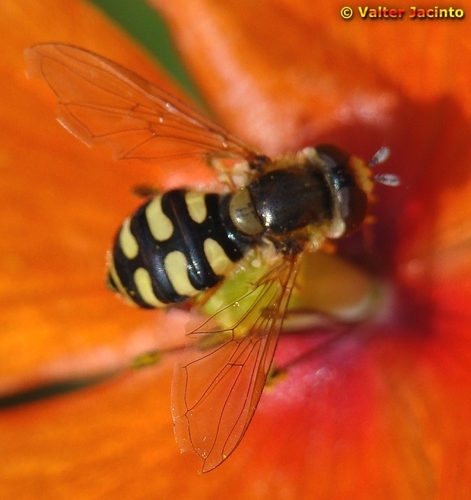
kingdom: Animalia
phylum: Arthropoda
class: Insecta
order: Diptera
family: Syrphidae
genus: Eupeodes
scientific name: Eupeodes corollae
